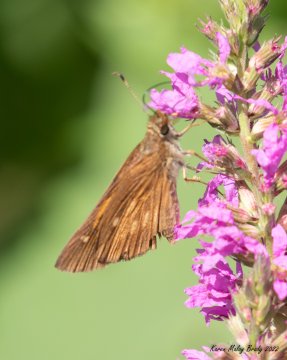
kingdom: Animalia
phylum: Arthropoda
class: Insecta
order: Lepidoptera
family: Hesperiidae
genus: Poanes
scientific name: Poanes viator
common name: Broad-winged Skipper
